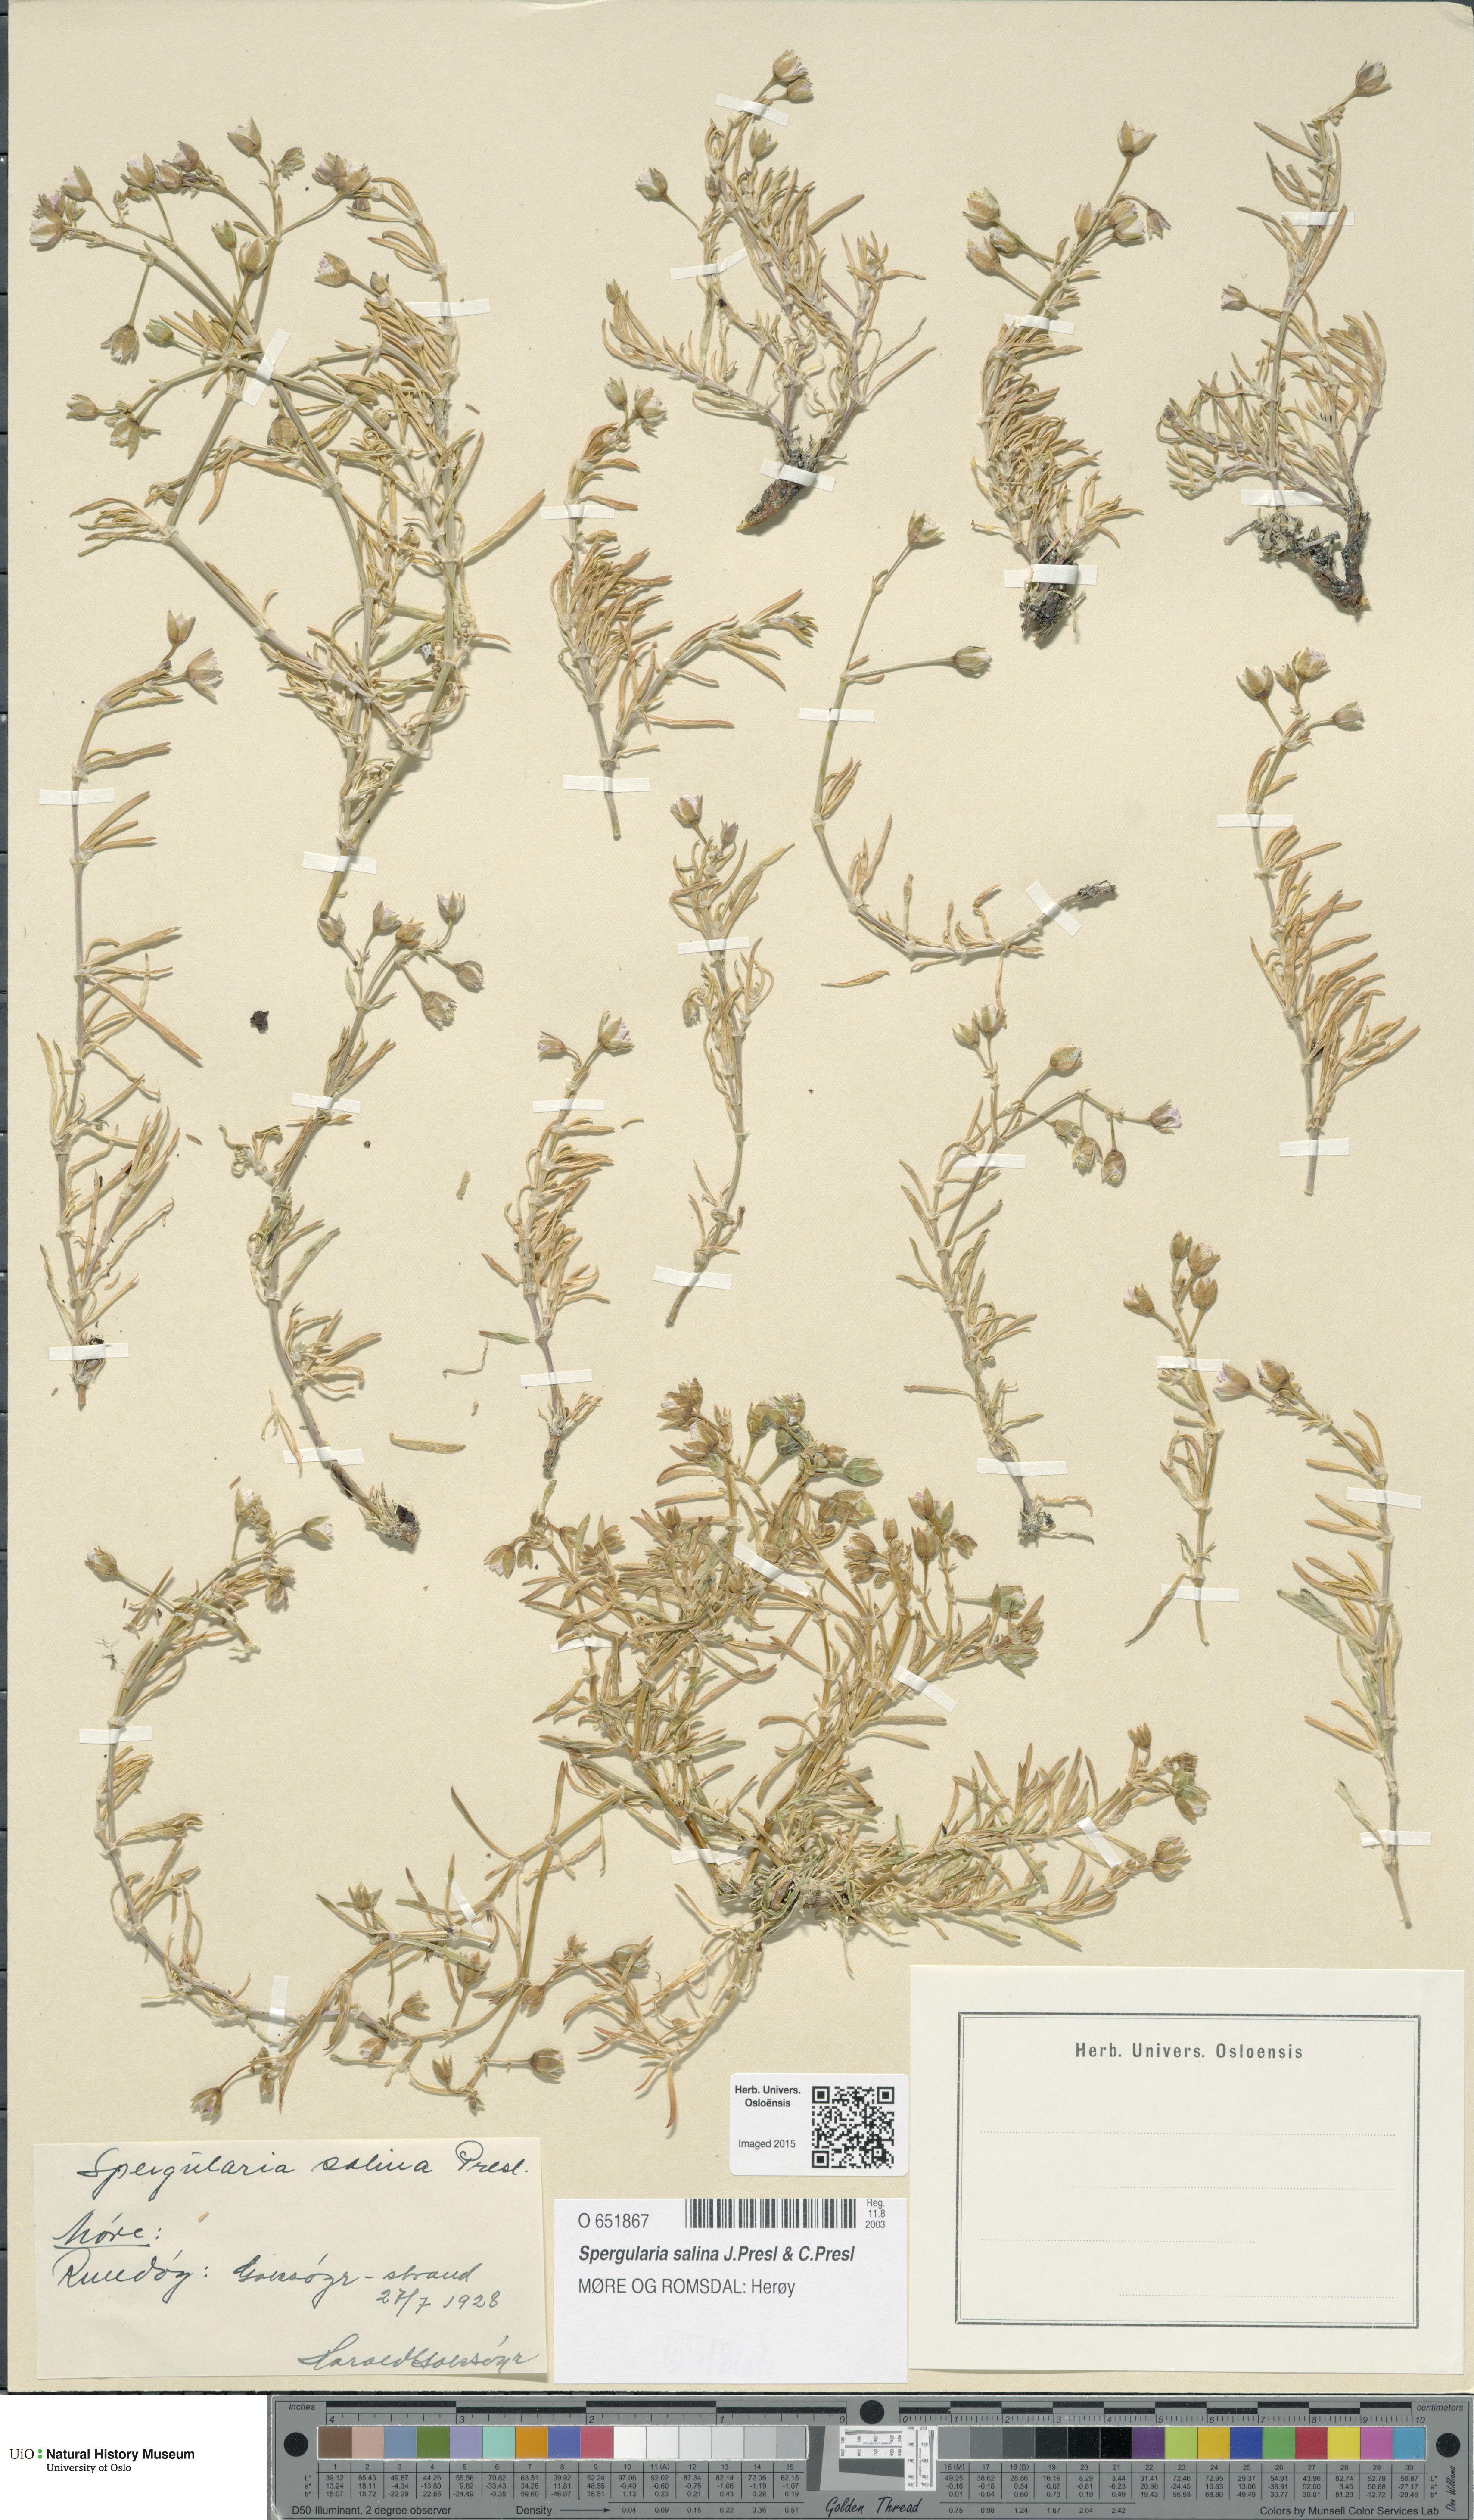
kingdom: Plantae
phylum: Tracheophyta
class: Magnoliopsida
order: Caryophyllales
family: Caryophyllaceae
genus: Spergularia
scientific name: Spergularia marina
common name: Lesser sea-spurrey
